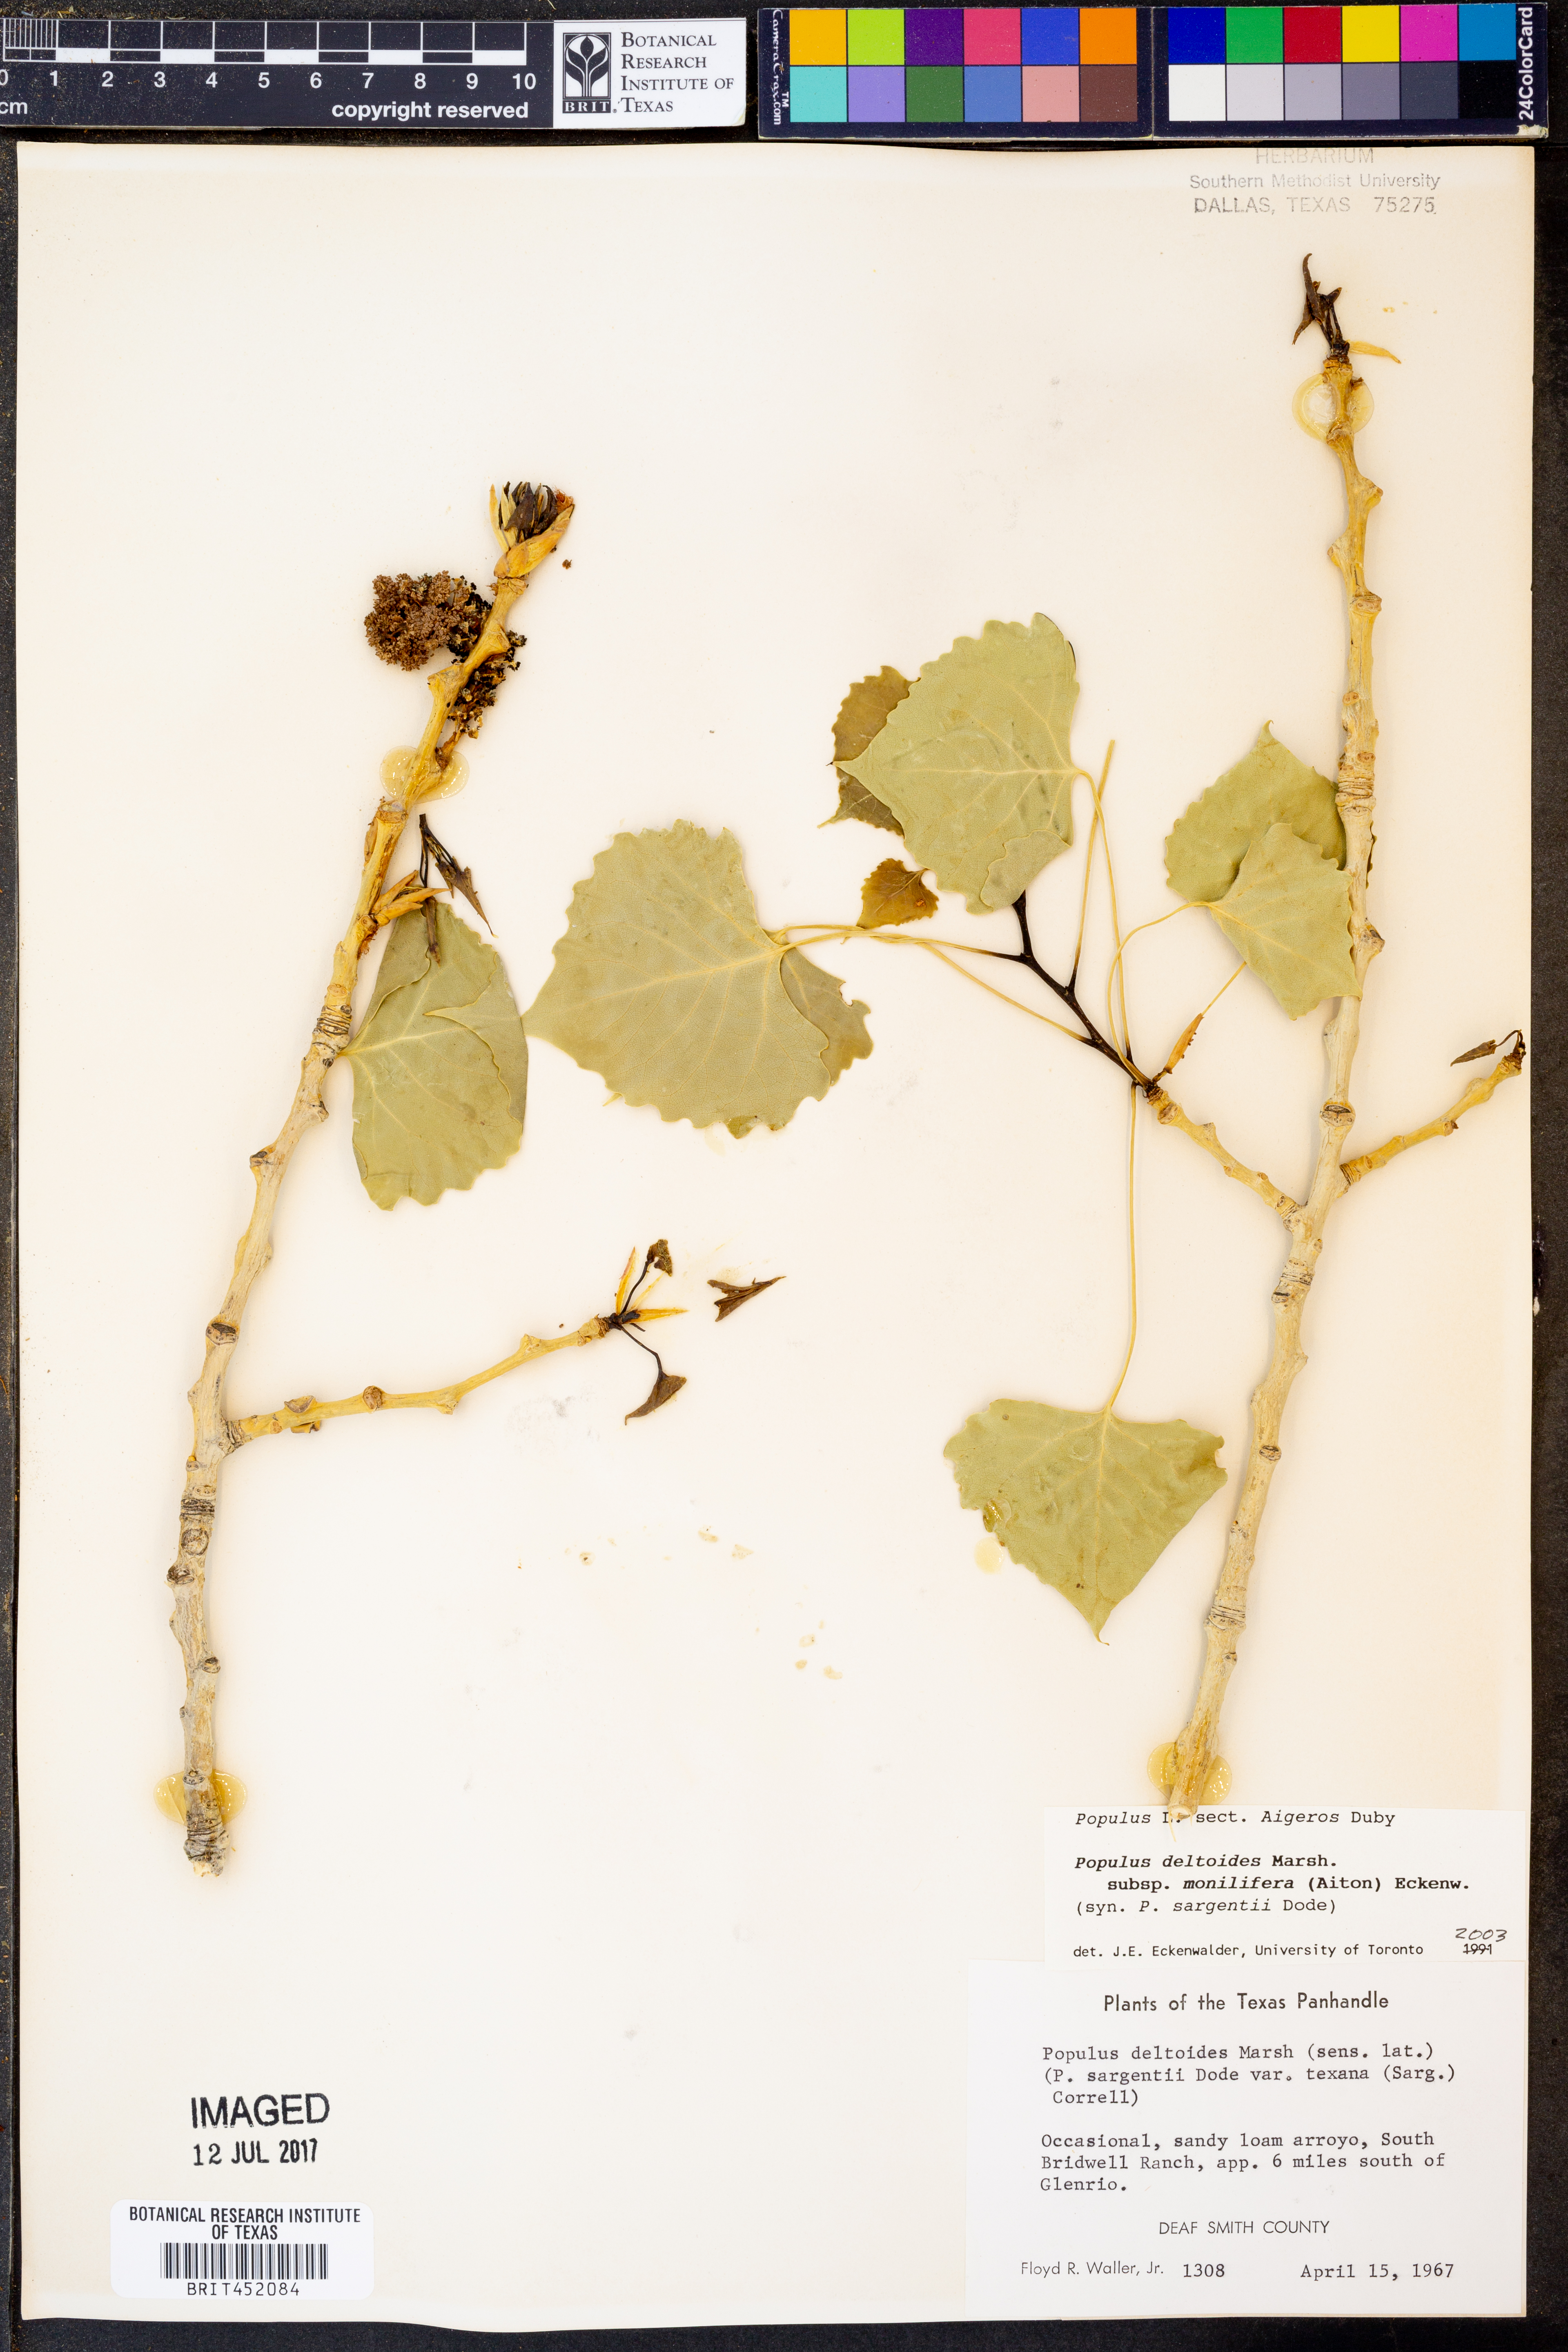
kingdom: Plantae
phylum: Tracheophyta
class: Magnoliopsida
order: Malpighiales
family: Salicaceae
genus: Populus
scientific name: Populus deltoides
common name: Eastern cottonwood
